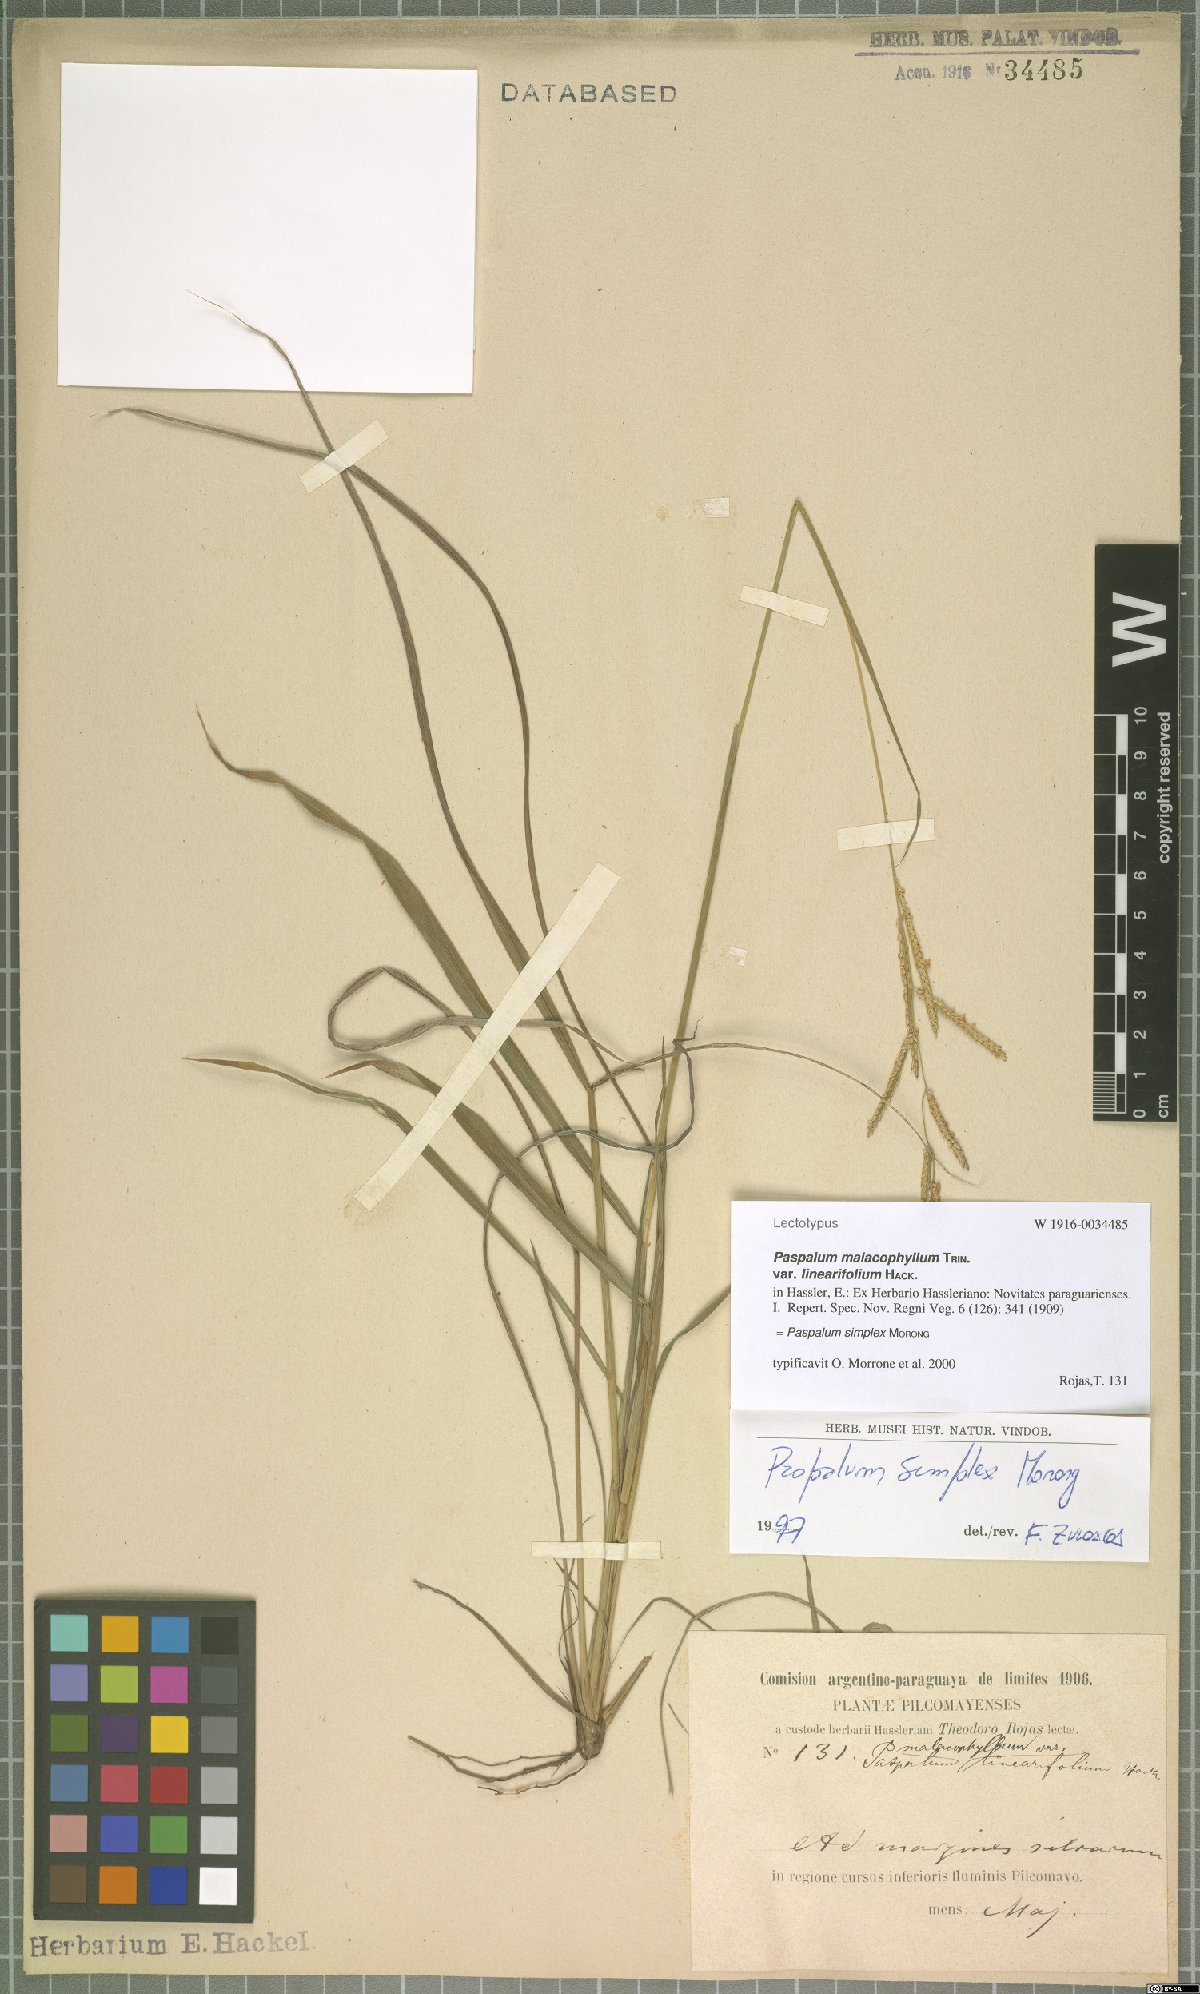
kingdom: Plantae
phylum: Tracheophyta
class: Liliopsida
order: Poales
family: Poaceae
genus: Paspalum
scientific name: Paspalum simplex
